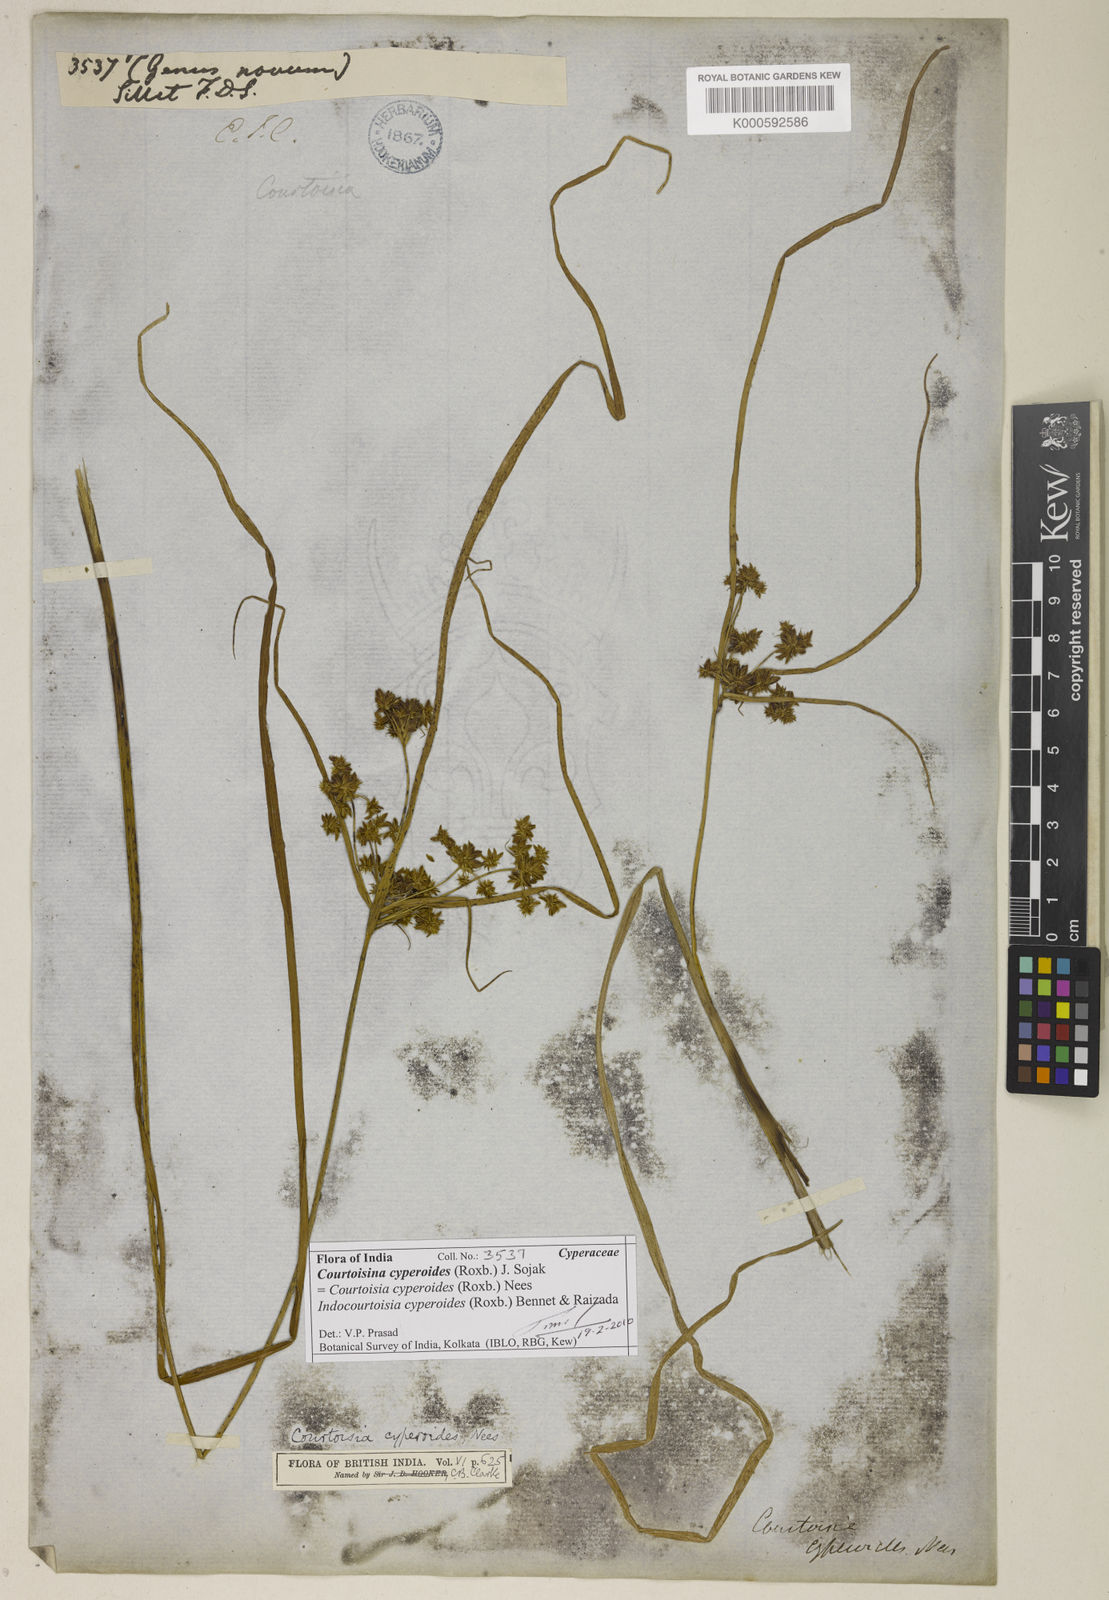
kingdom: Plantae
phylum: Tracheophyta
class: Liliopsida
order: Poales
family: Cyperaceae
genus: Cyperus
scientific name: Cyperus
